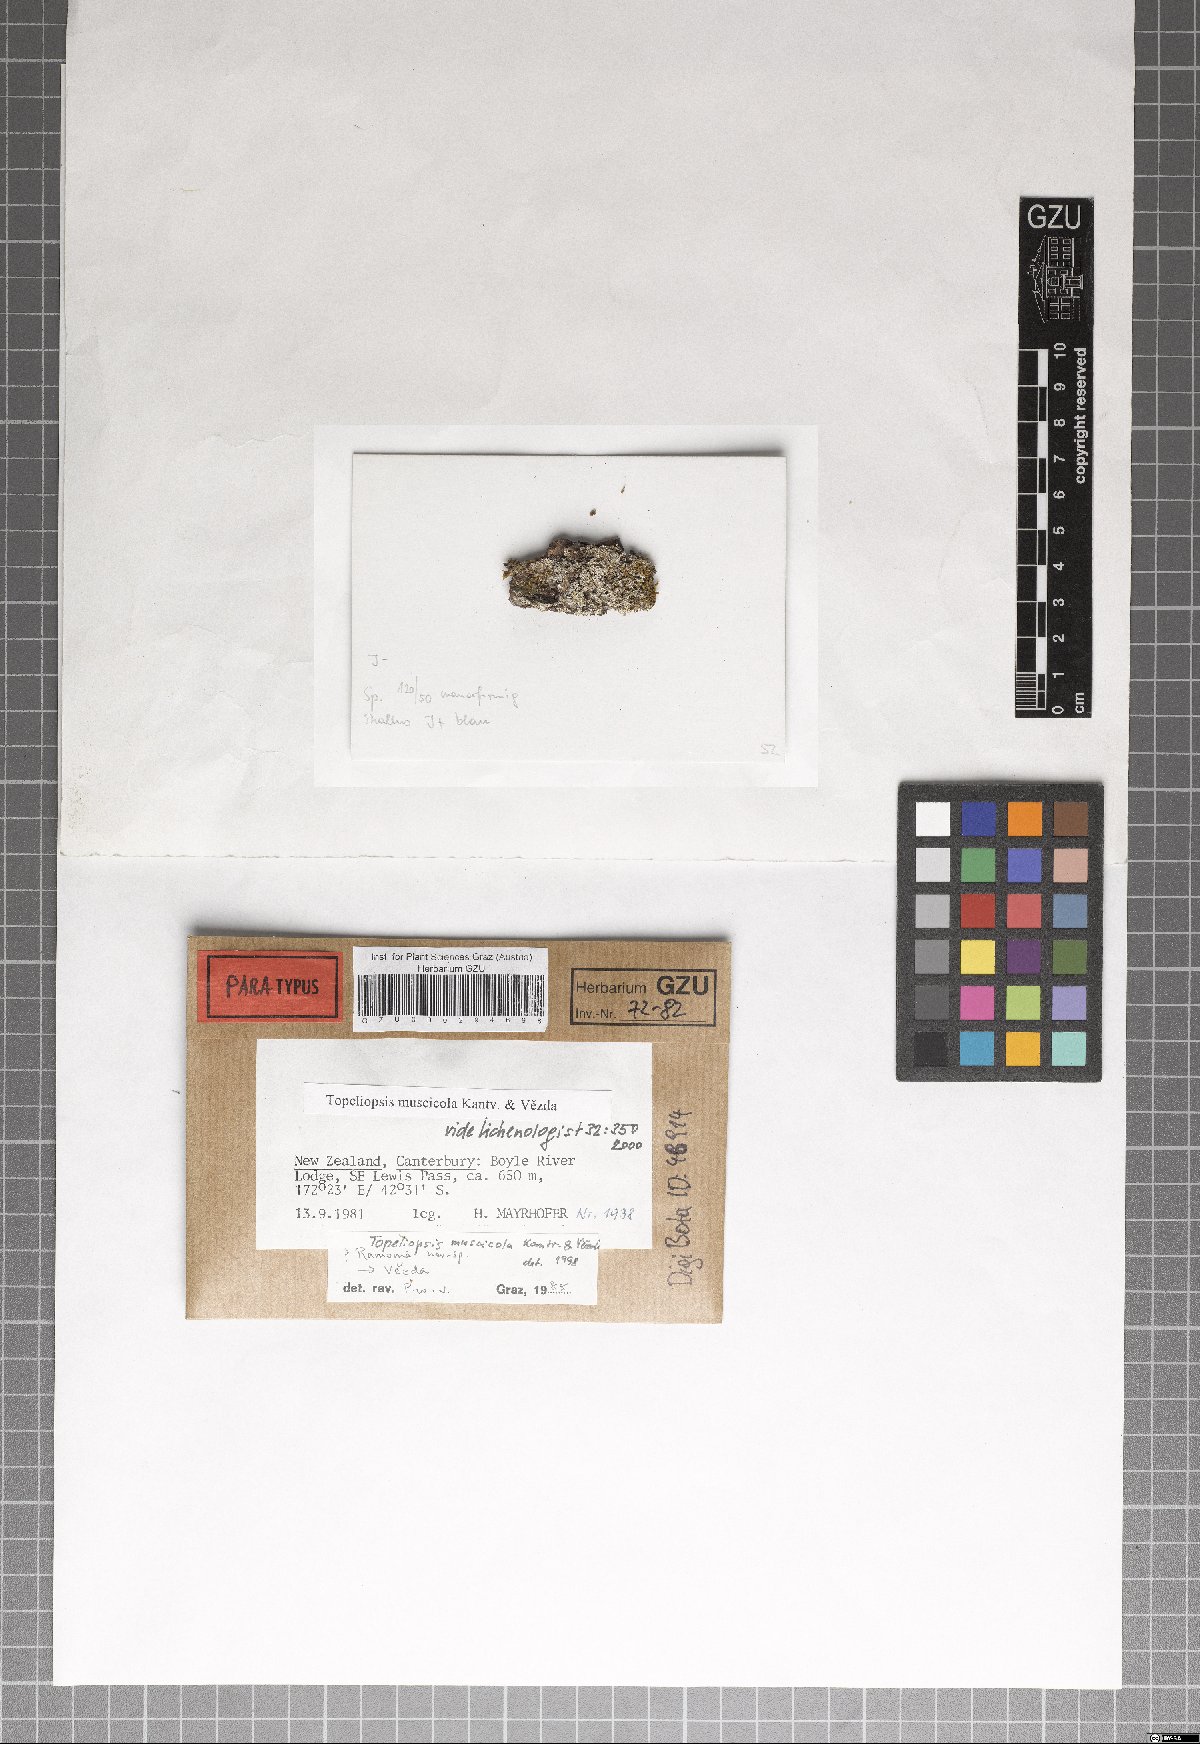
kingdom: Fungi
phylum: Ascomycota
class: Lecanoromycetes
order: Ostropales
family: Graphidaceae
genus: Topeliopsis
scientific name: Topeliopsis muscigena
